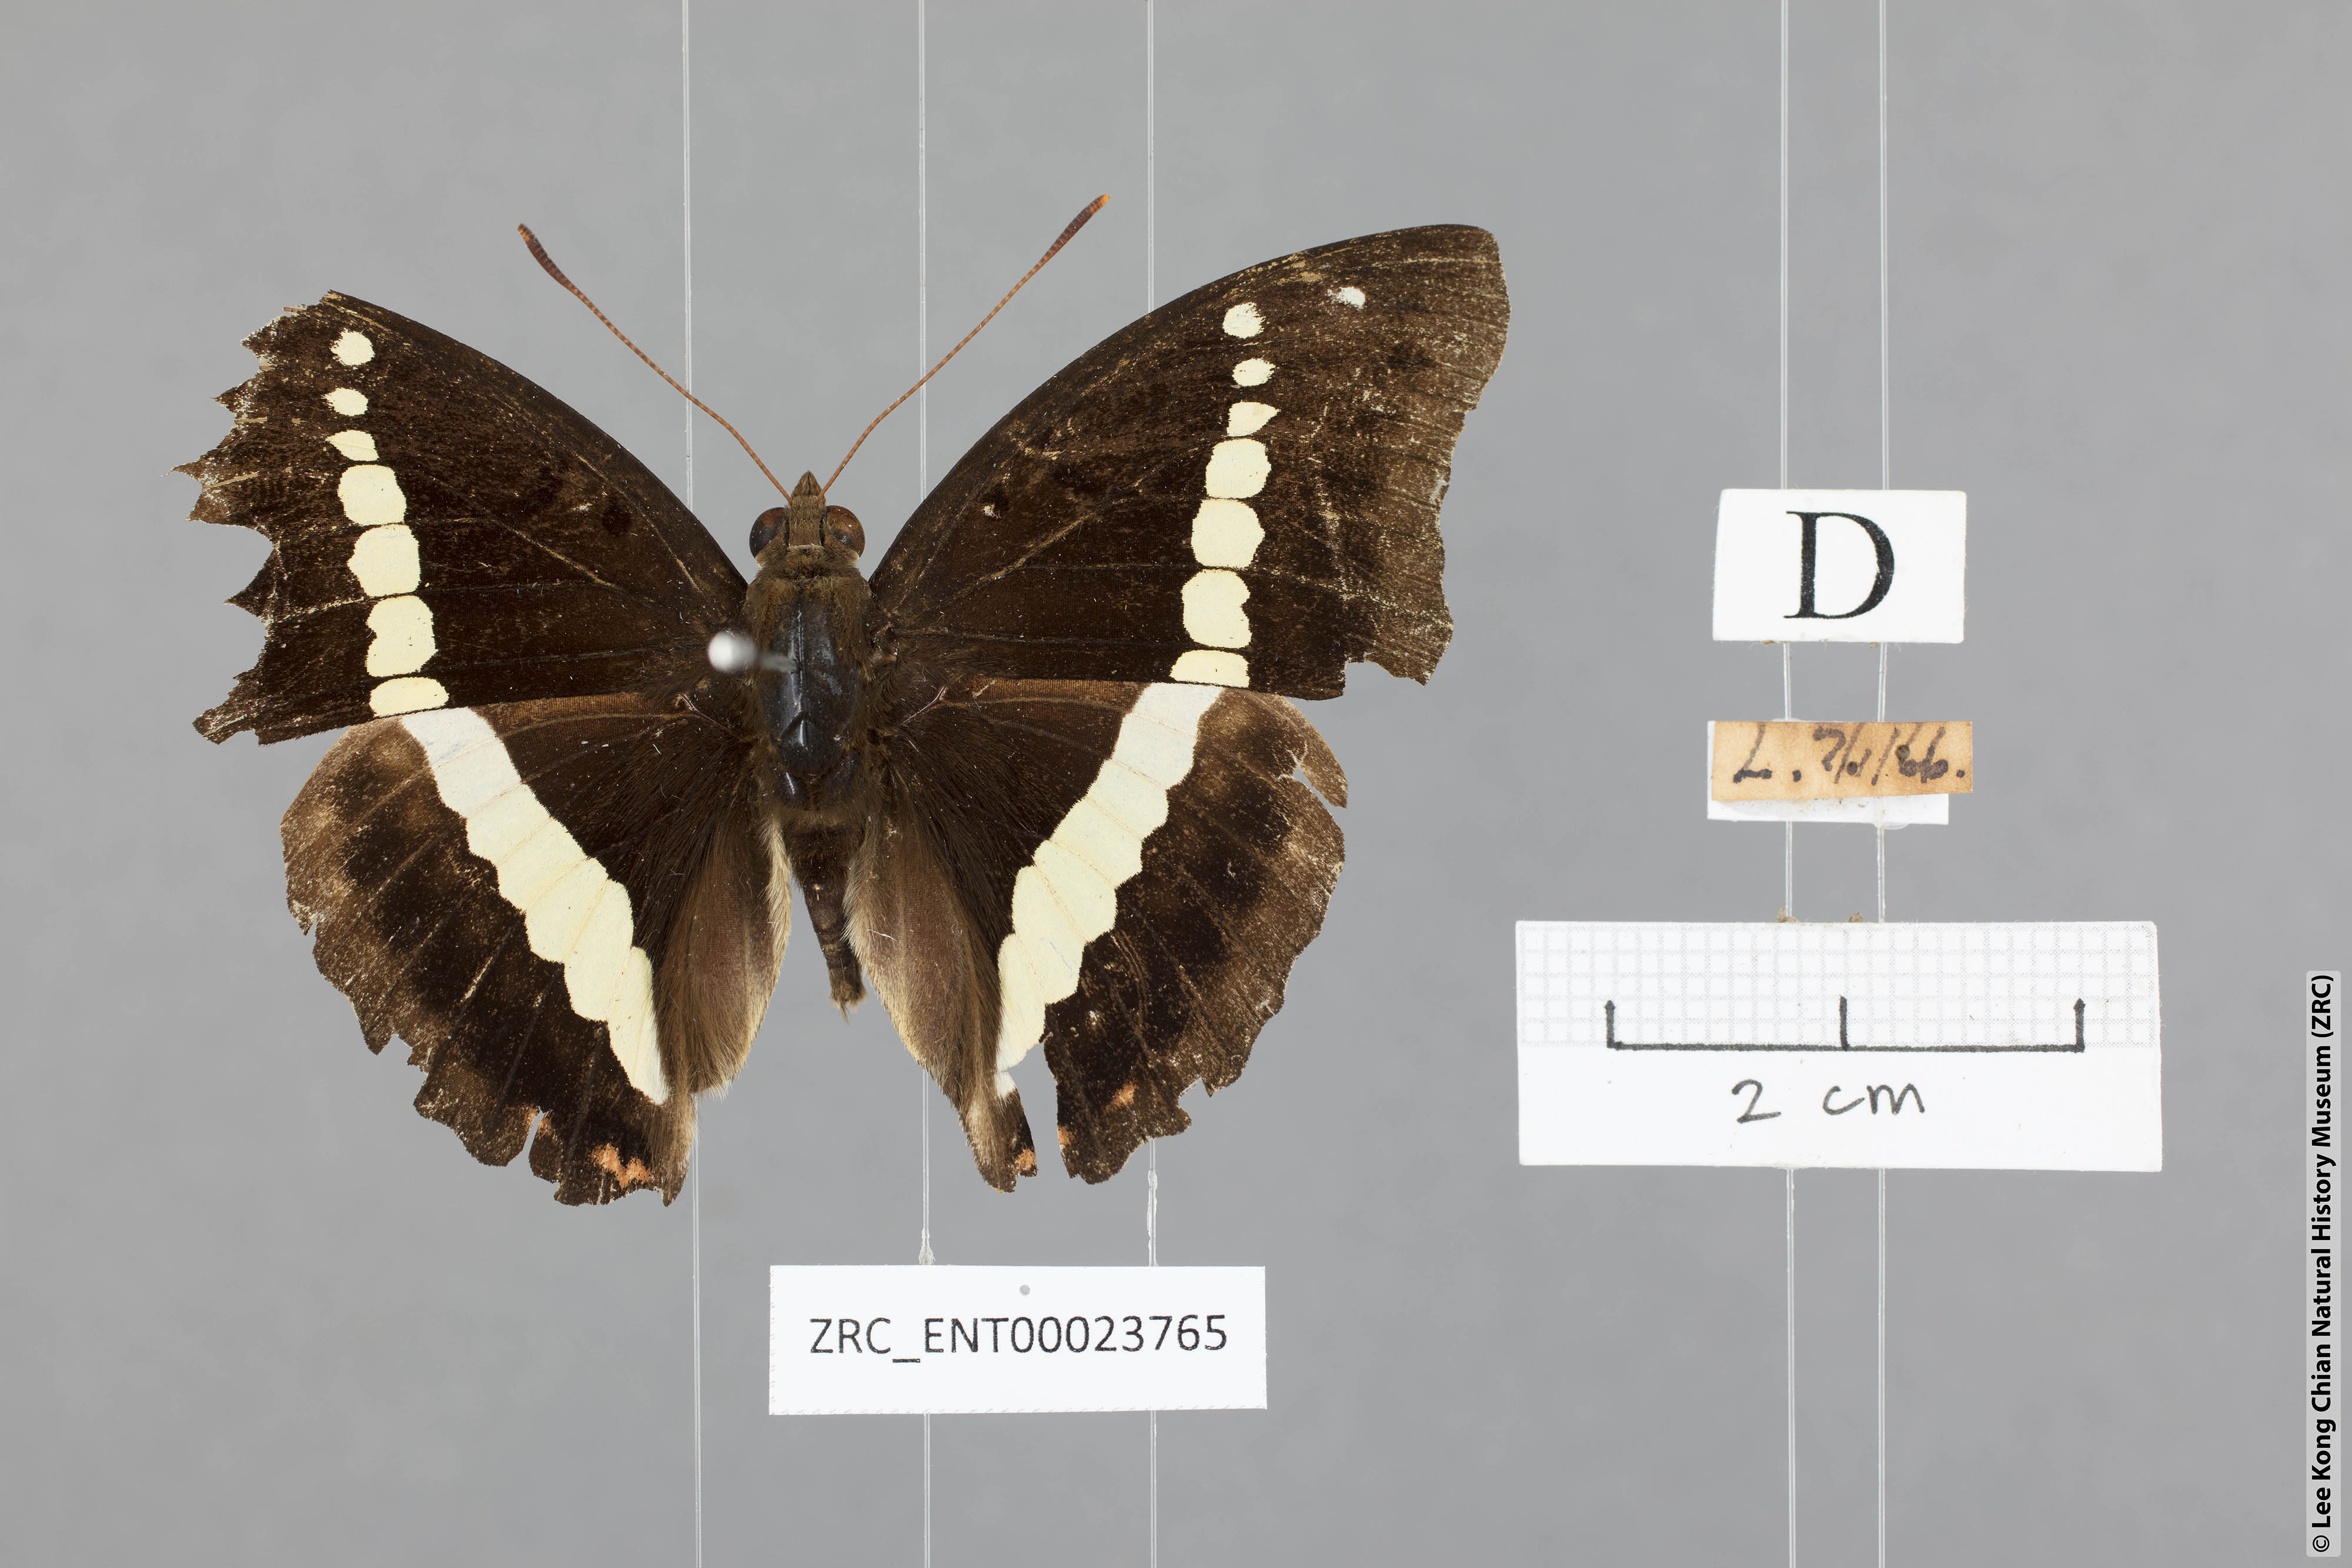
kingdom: Animalia
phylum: Arthropoda
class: Insecta
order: Lepidoptera
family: Nymphalidae
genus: Euthalia
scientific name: Euthalia Bassarona recta
